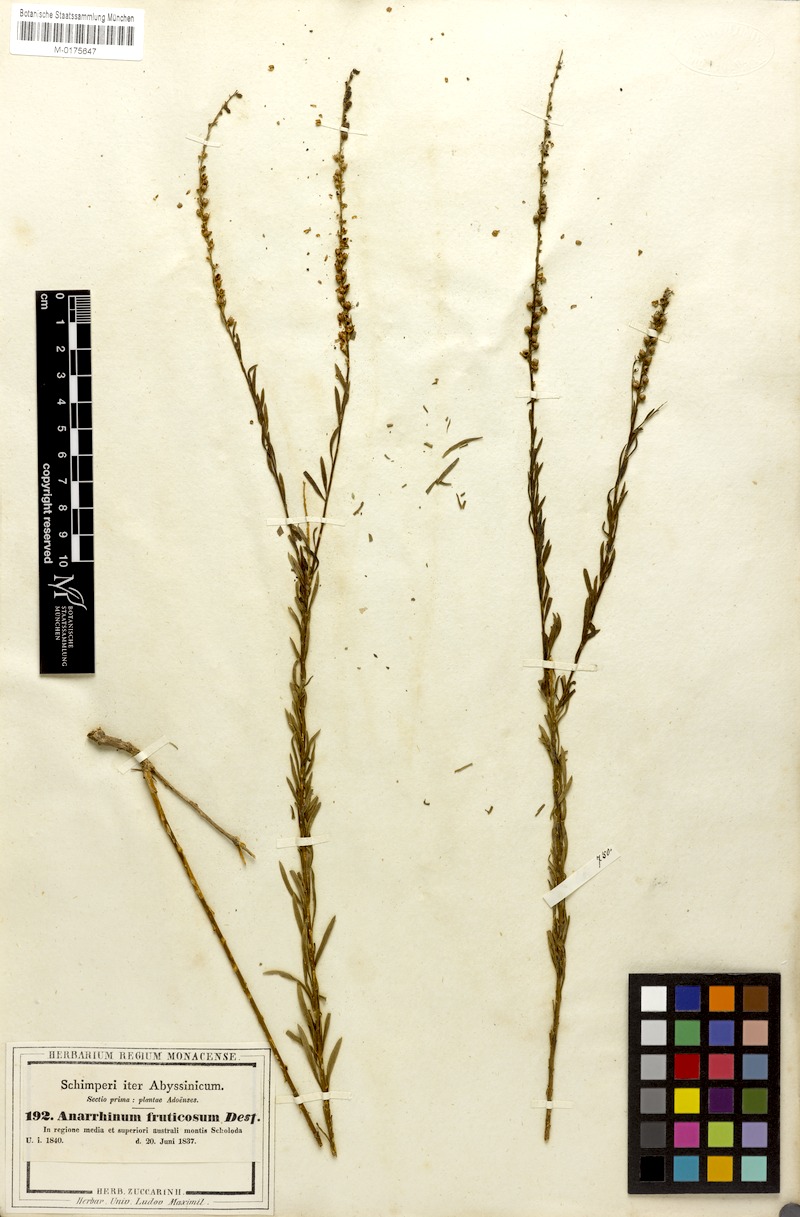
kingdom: Plantae
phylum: Tracheophyta
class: Magnoliopsida
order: Lamiales
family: Plantaginaceae
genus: Anarrhinum
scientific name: Anarrhinum fruticosum
